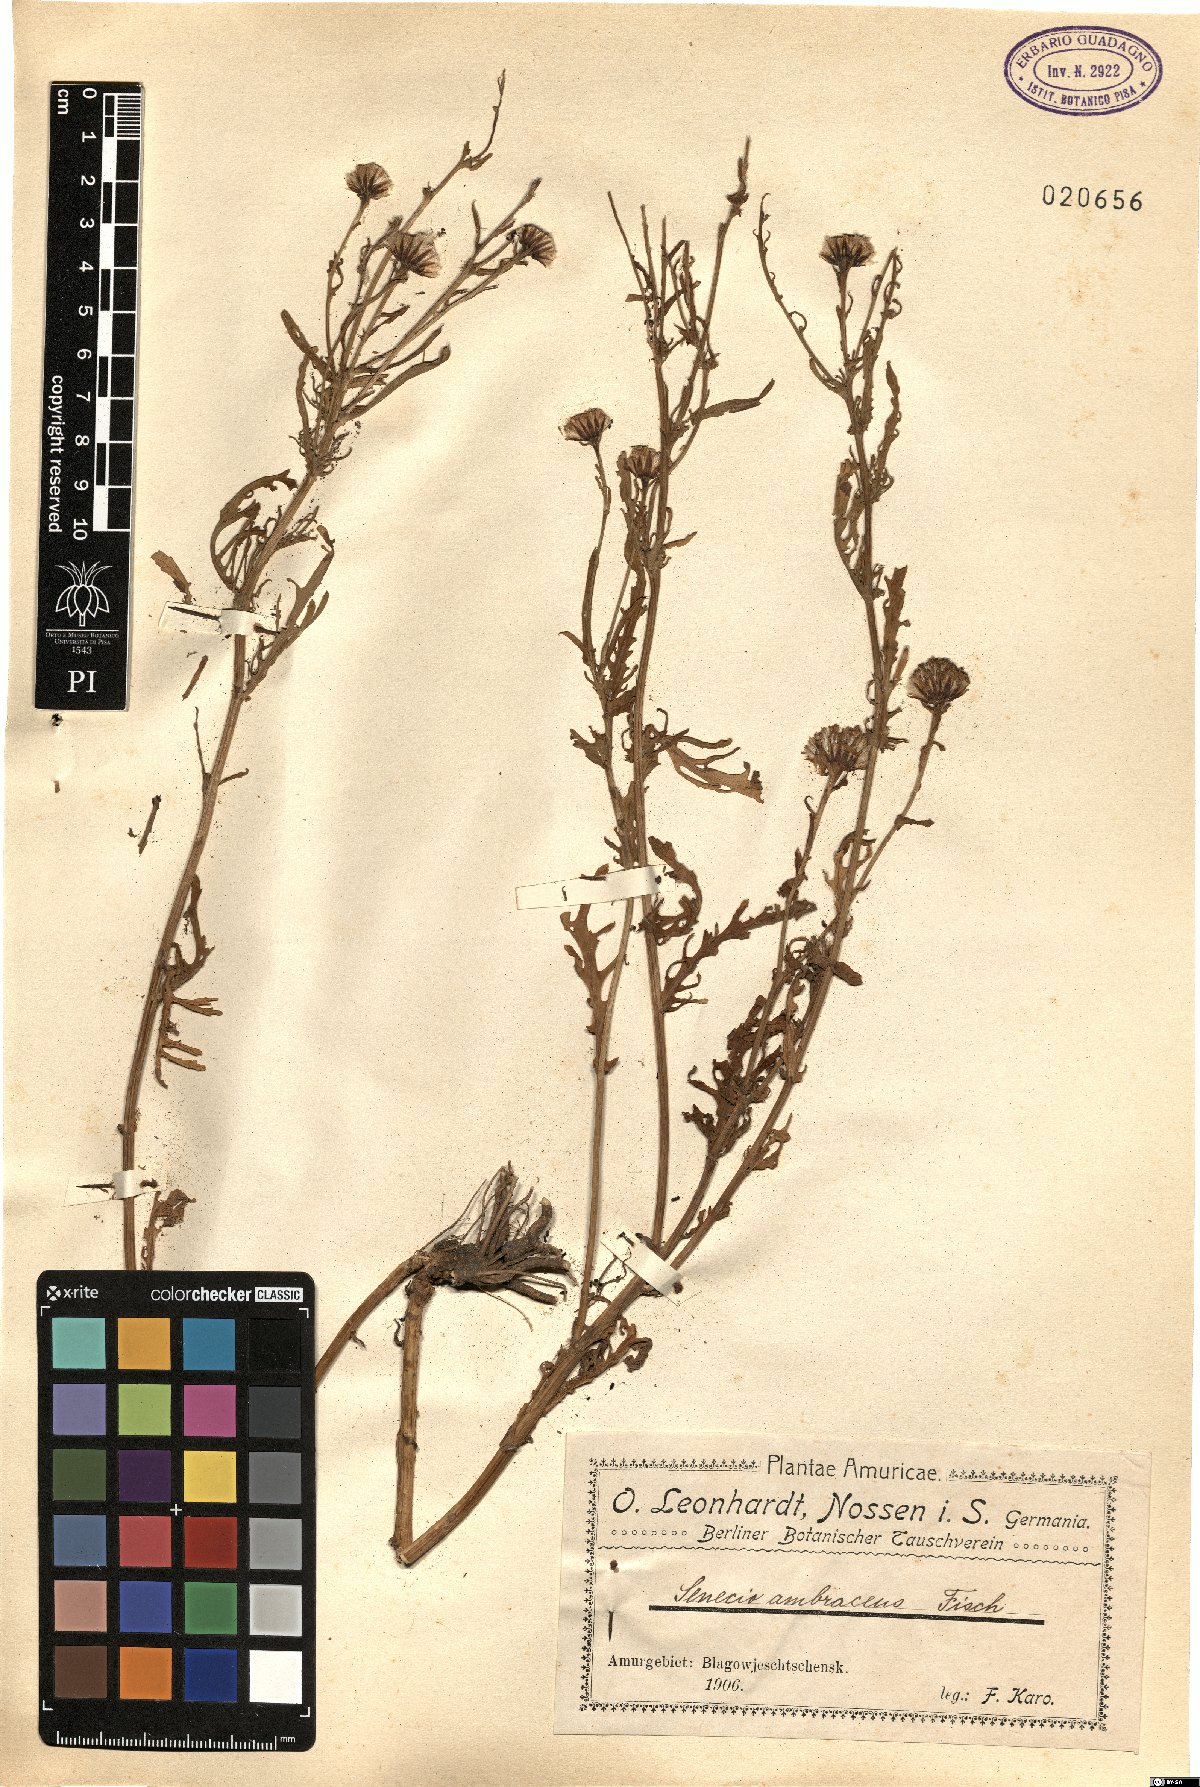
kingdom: Plantae
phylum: Tracheophyta
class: Magnoliopsida
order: Asterales
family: Asteraceae
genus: Jacobaea
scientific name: Jacobaea ambracea
